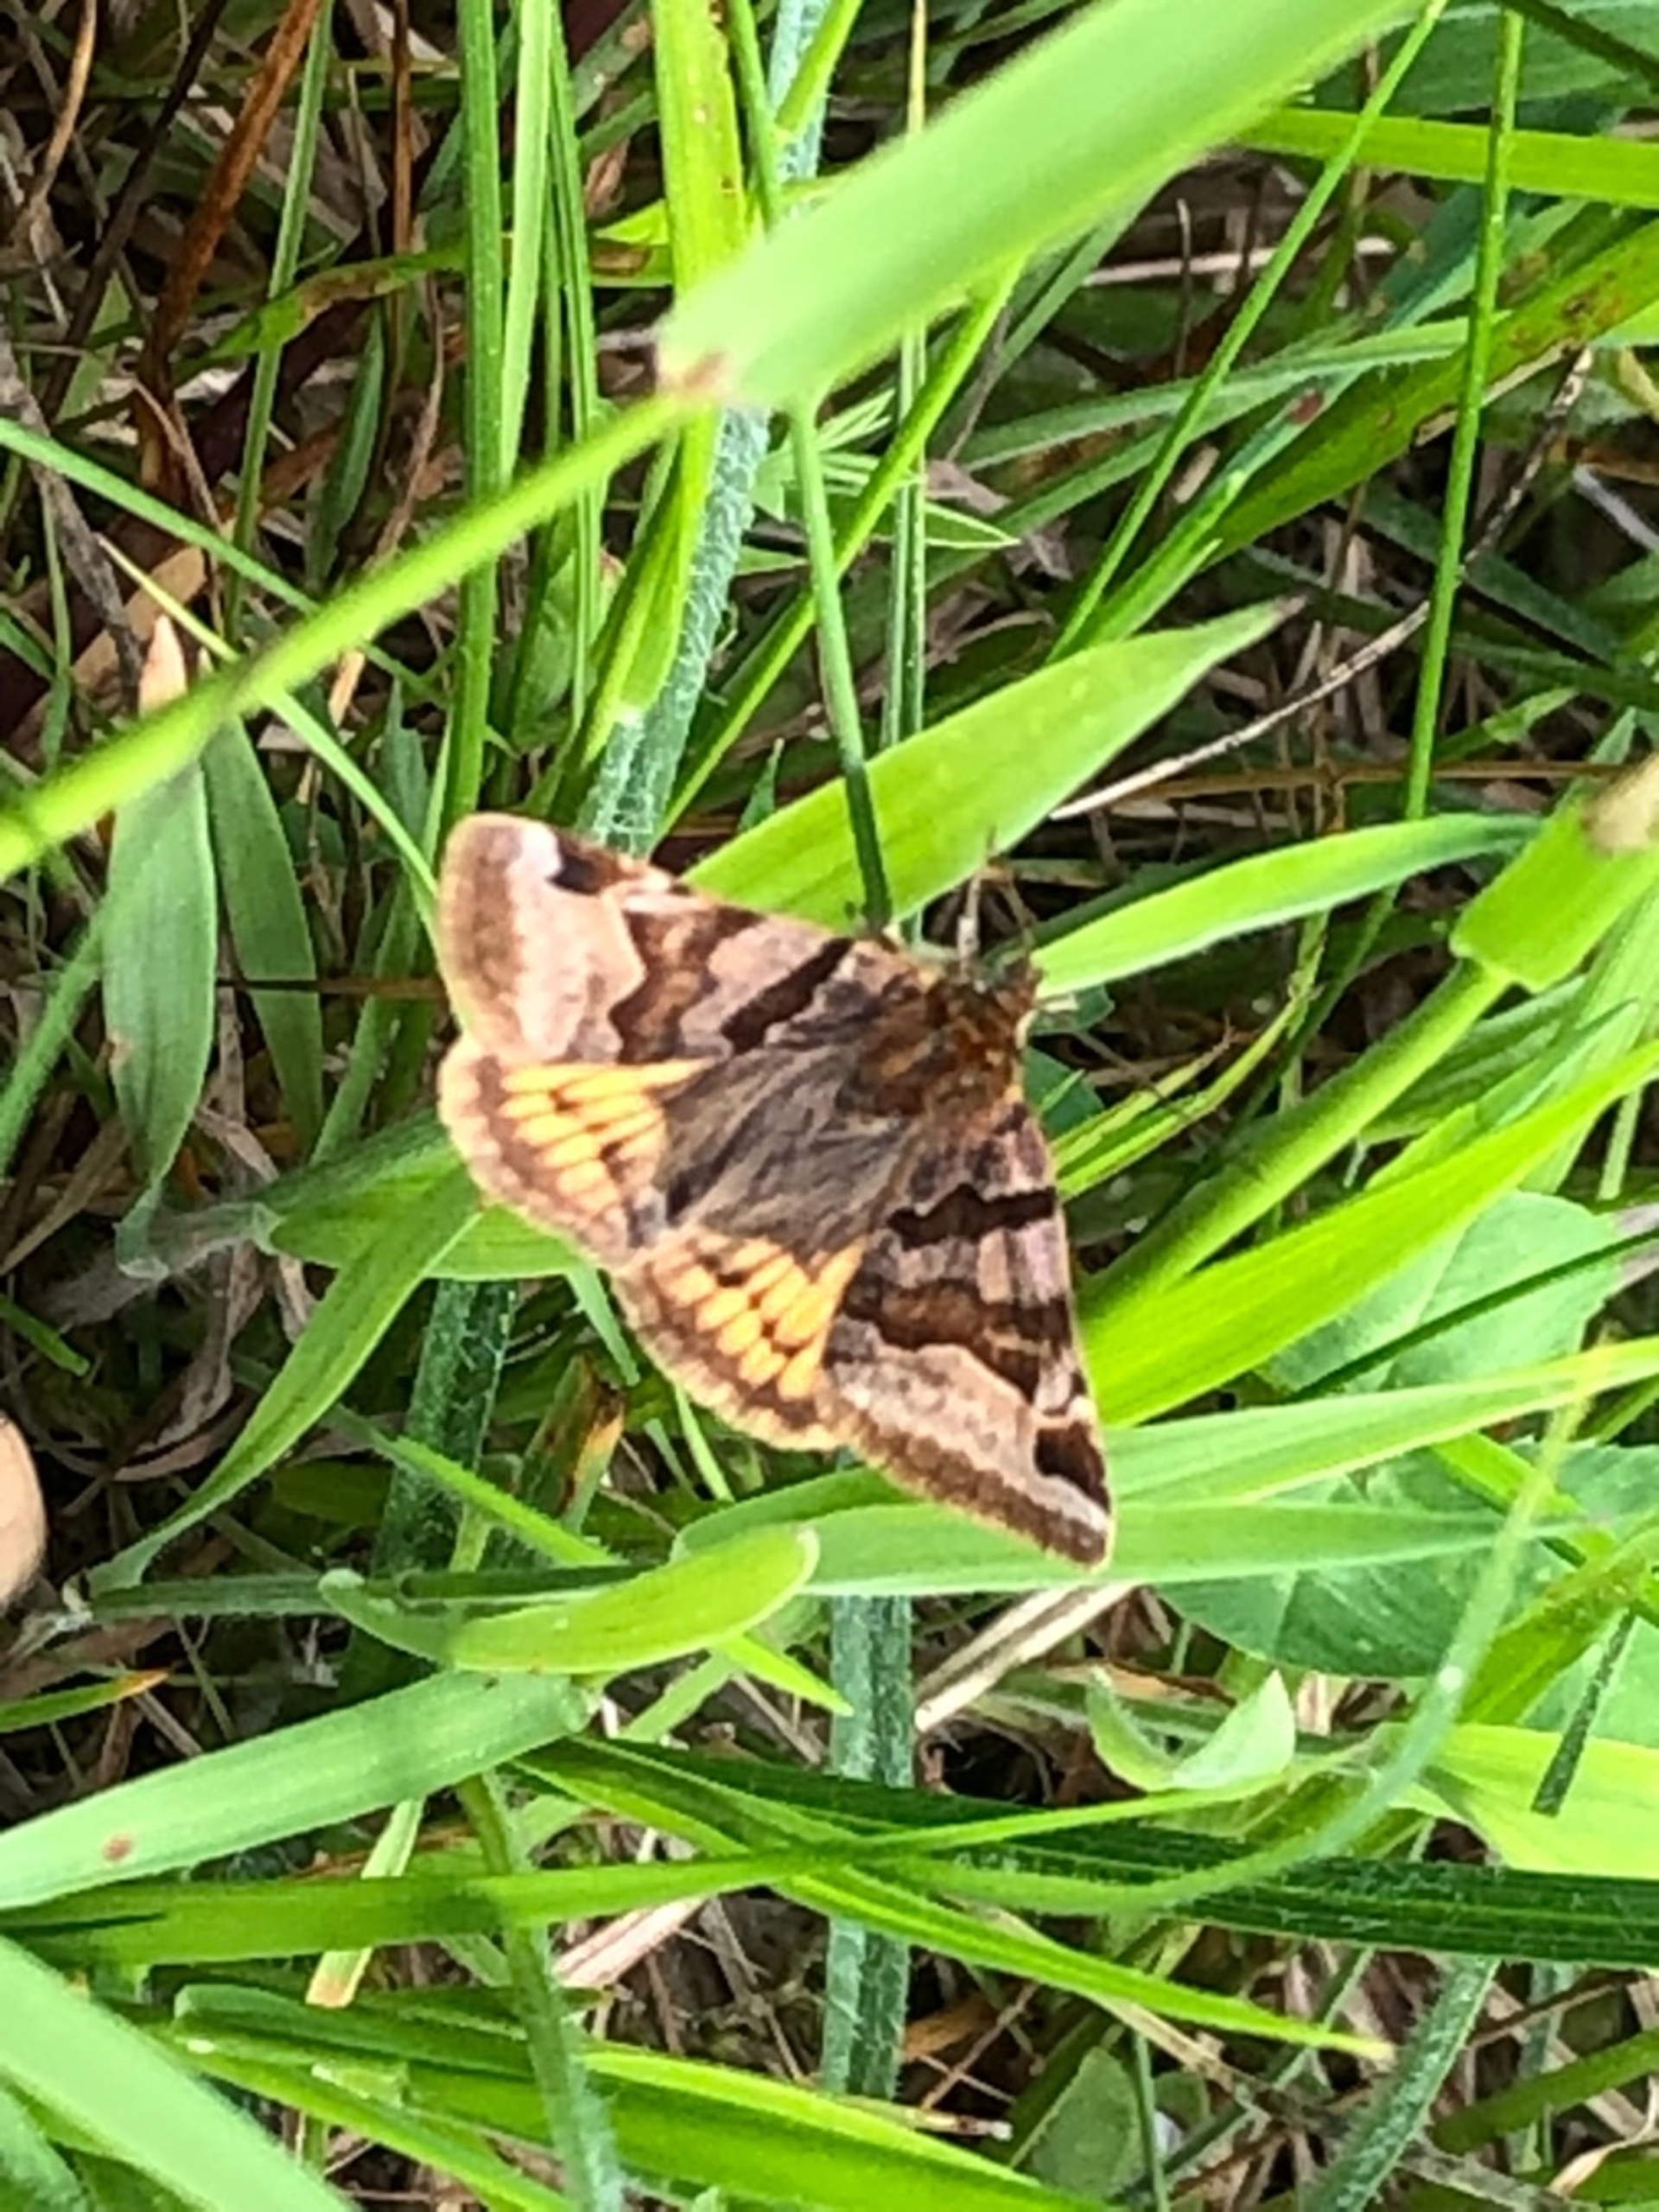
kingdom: Animalia
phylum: Arthropoda
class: Insecta
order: Lepidoptera
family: Erebidae
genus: Euclidia
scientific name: Euclidia glyphica
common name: Brun kløverugle
